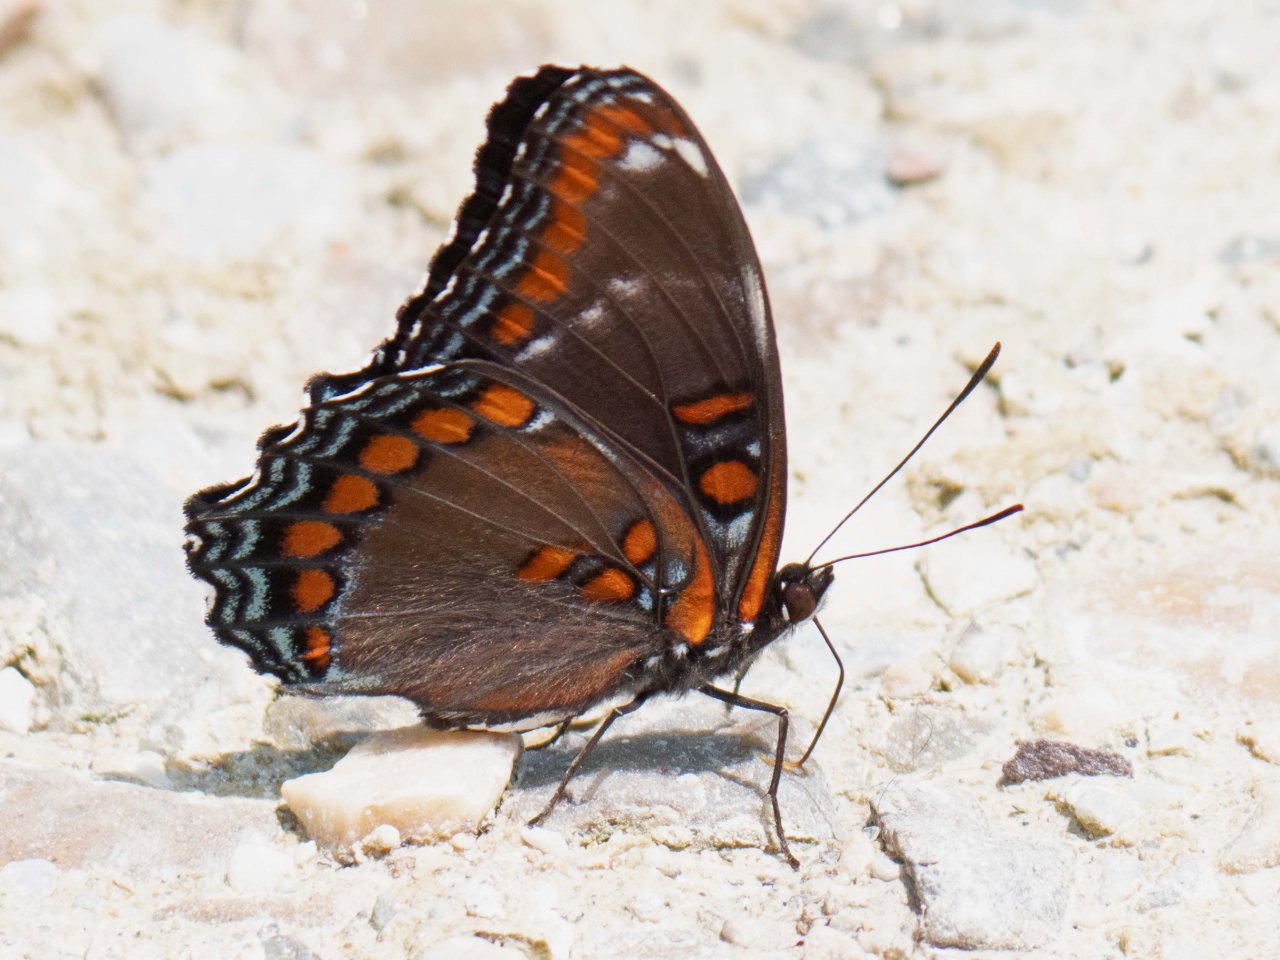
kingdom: Animalia
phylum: Arthropoda
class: Insecta
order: Lepidoptera
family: Nymphalidae
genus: Limenitis
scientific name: Limenitis
